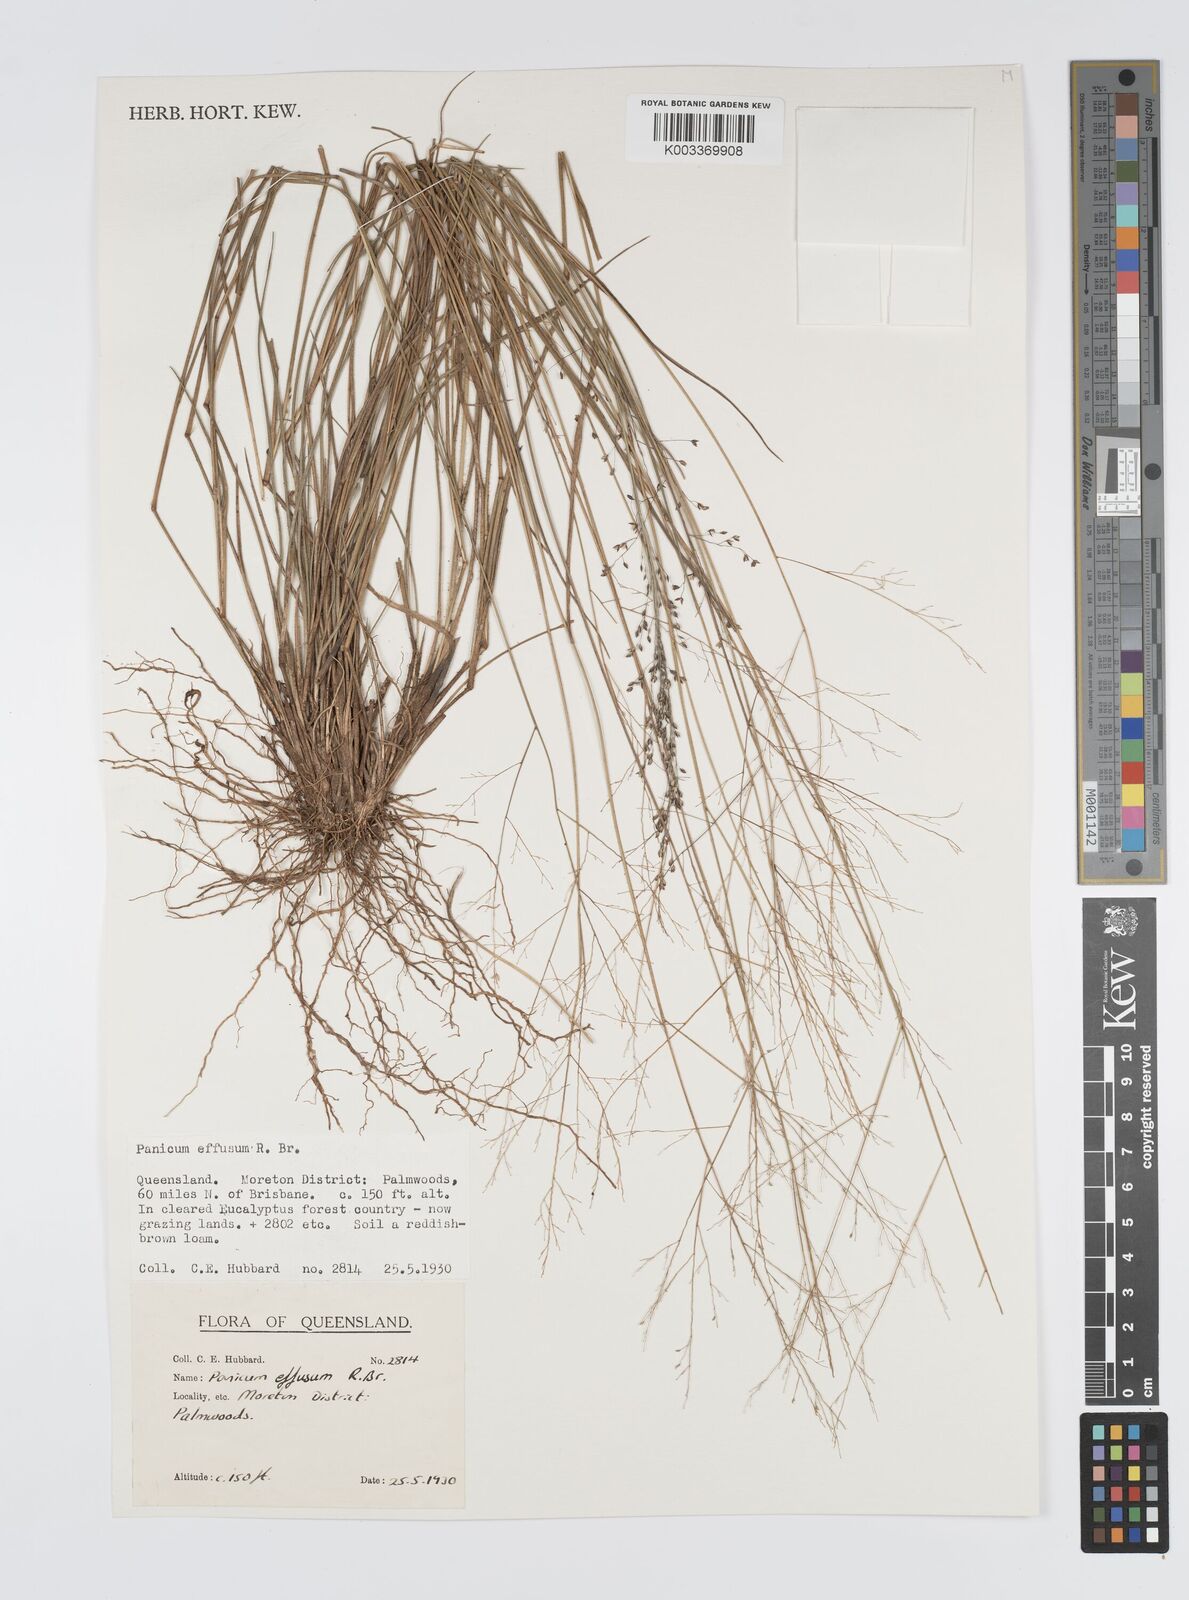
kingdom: Plantae
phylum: Tracheophyta
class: Liliopsida
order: Poales
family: Poaceae
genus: Panicum
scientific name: Panicum effusum
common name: Hairy panic grass
